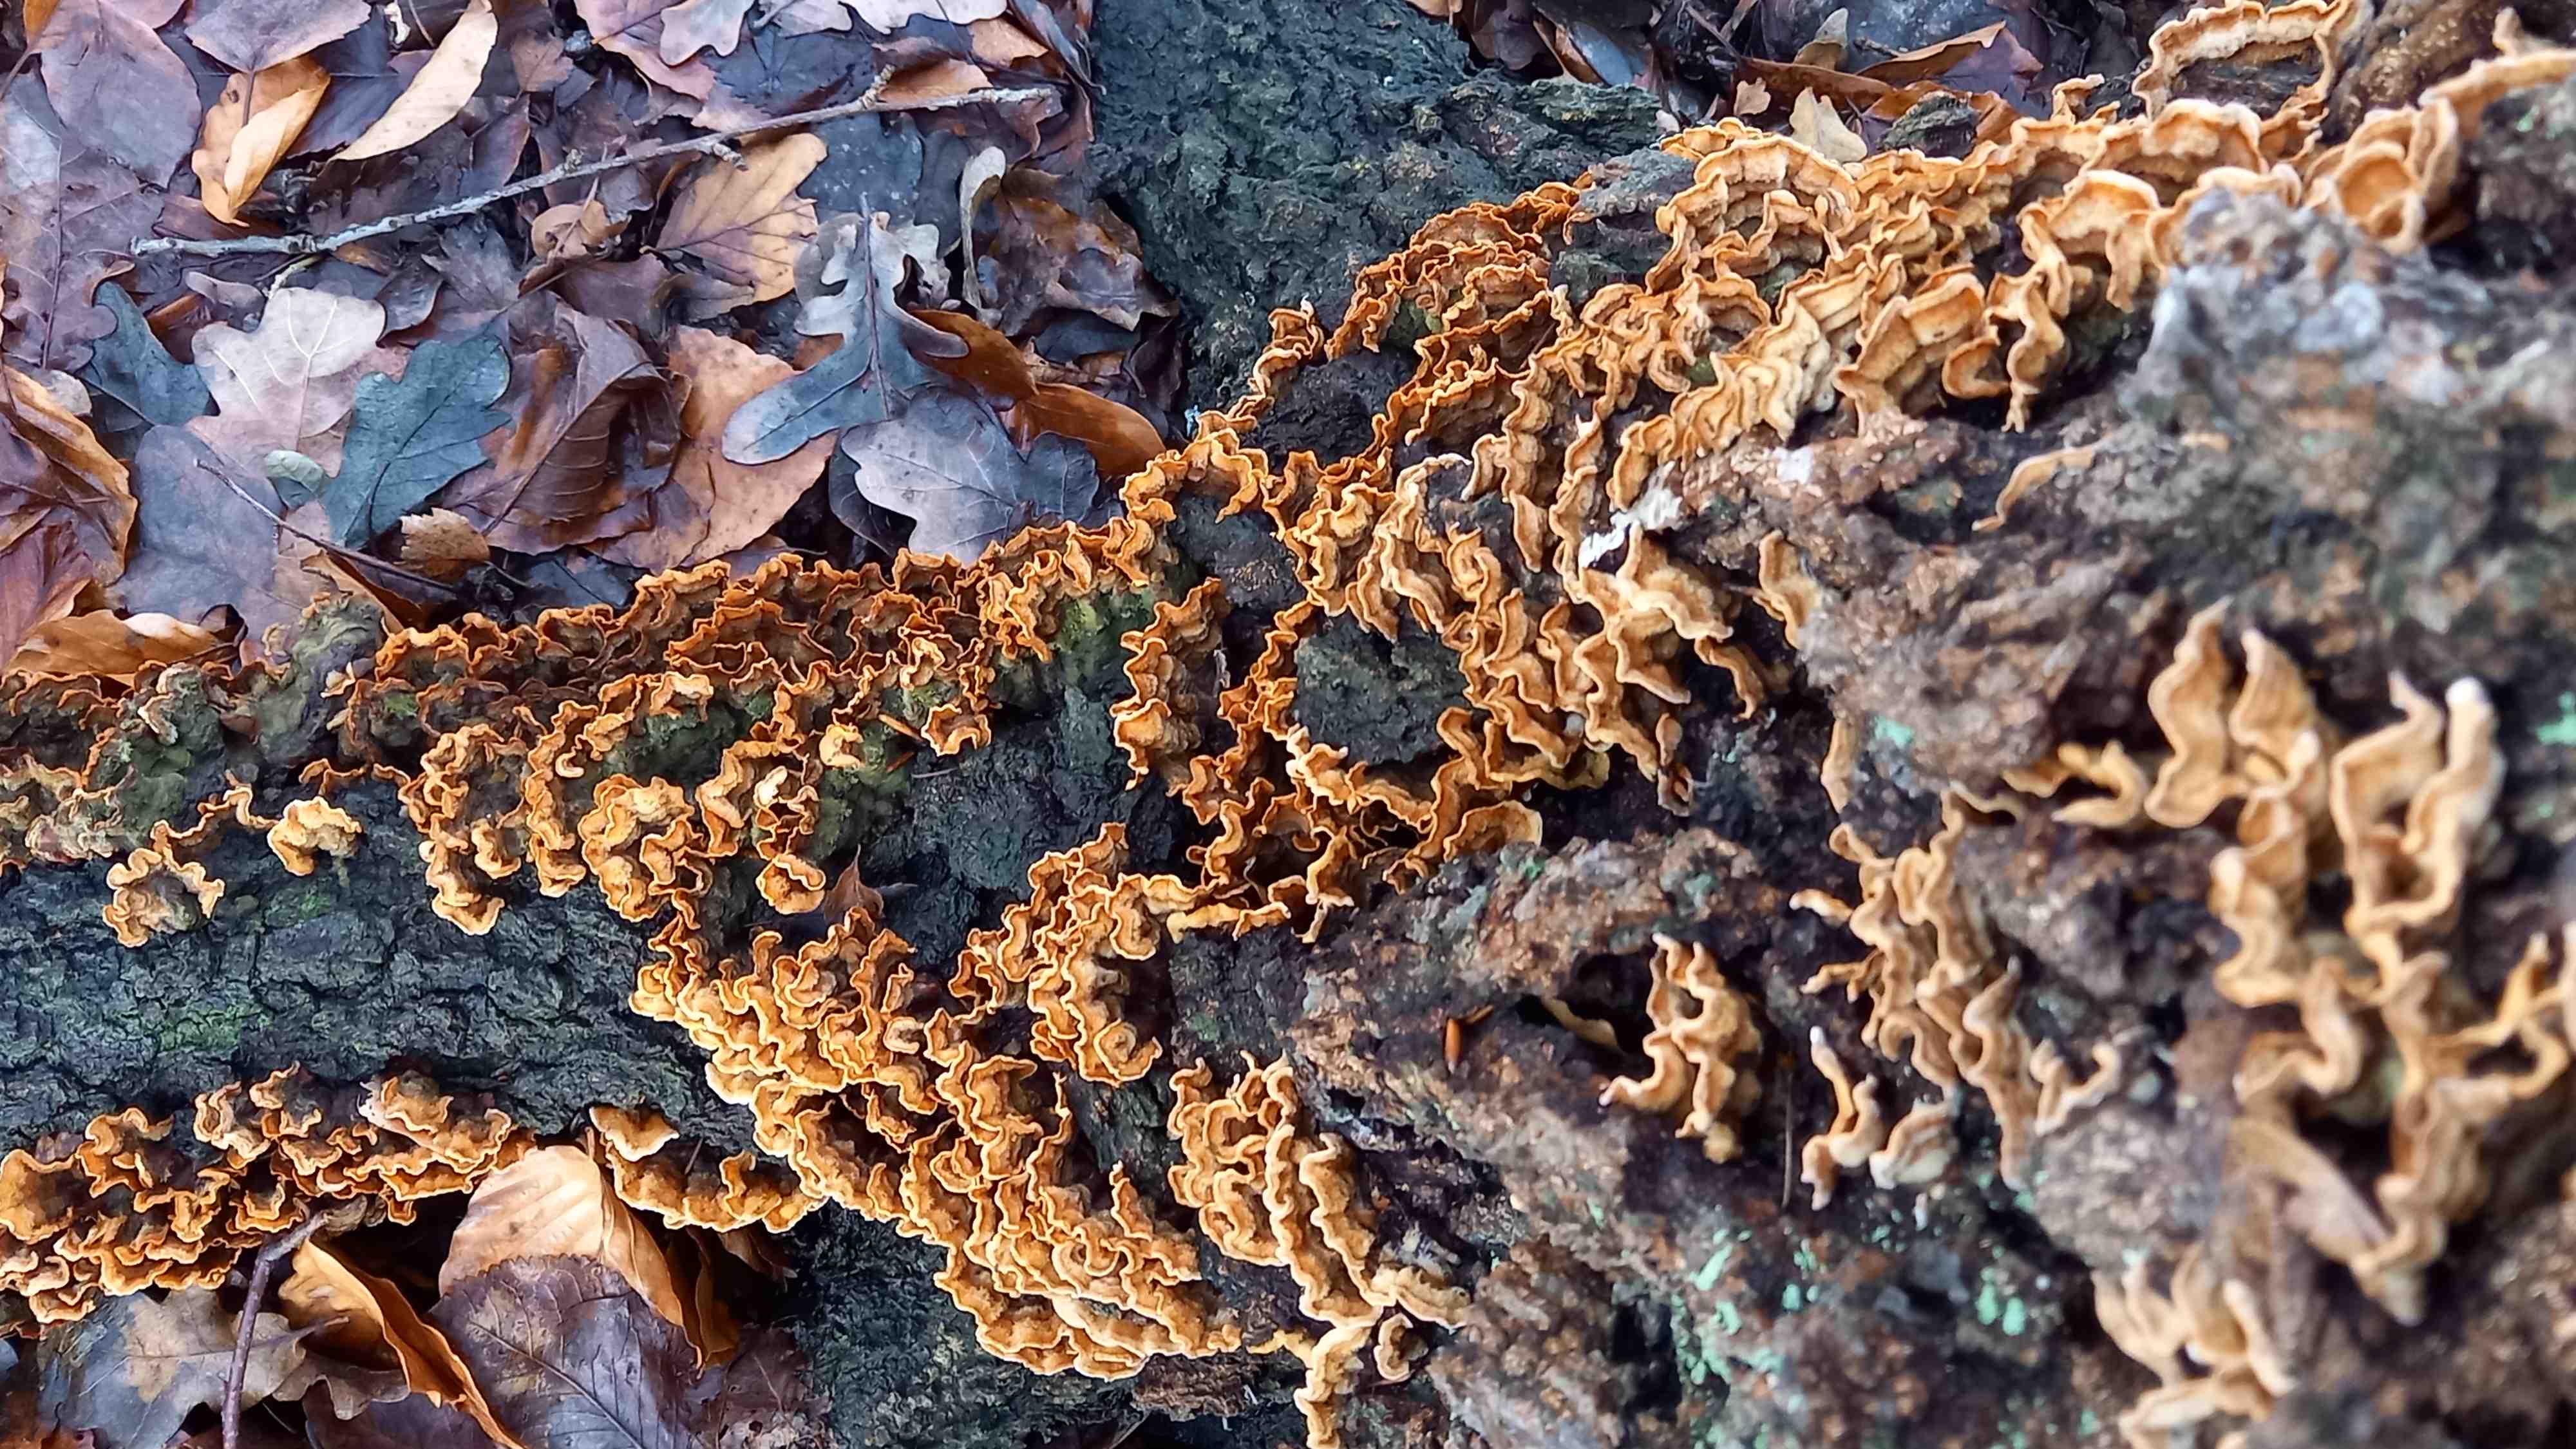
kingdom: Fungi
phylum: Basidiomycota
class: Agaricomycetes
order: Russulales
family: Stereaceae
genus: Stereum
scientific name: Stereum hirsutum
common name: håret lædersvamp
